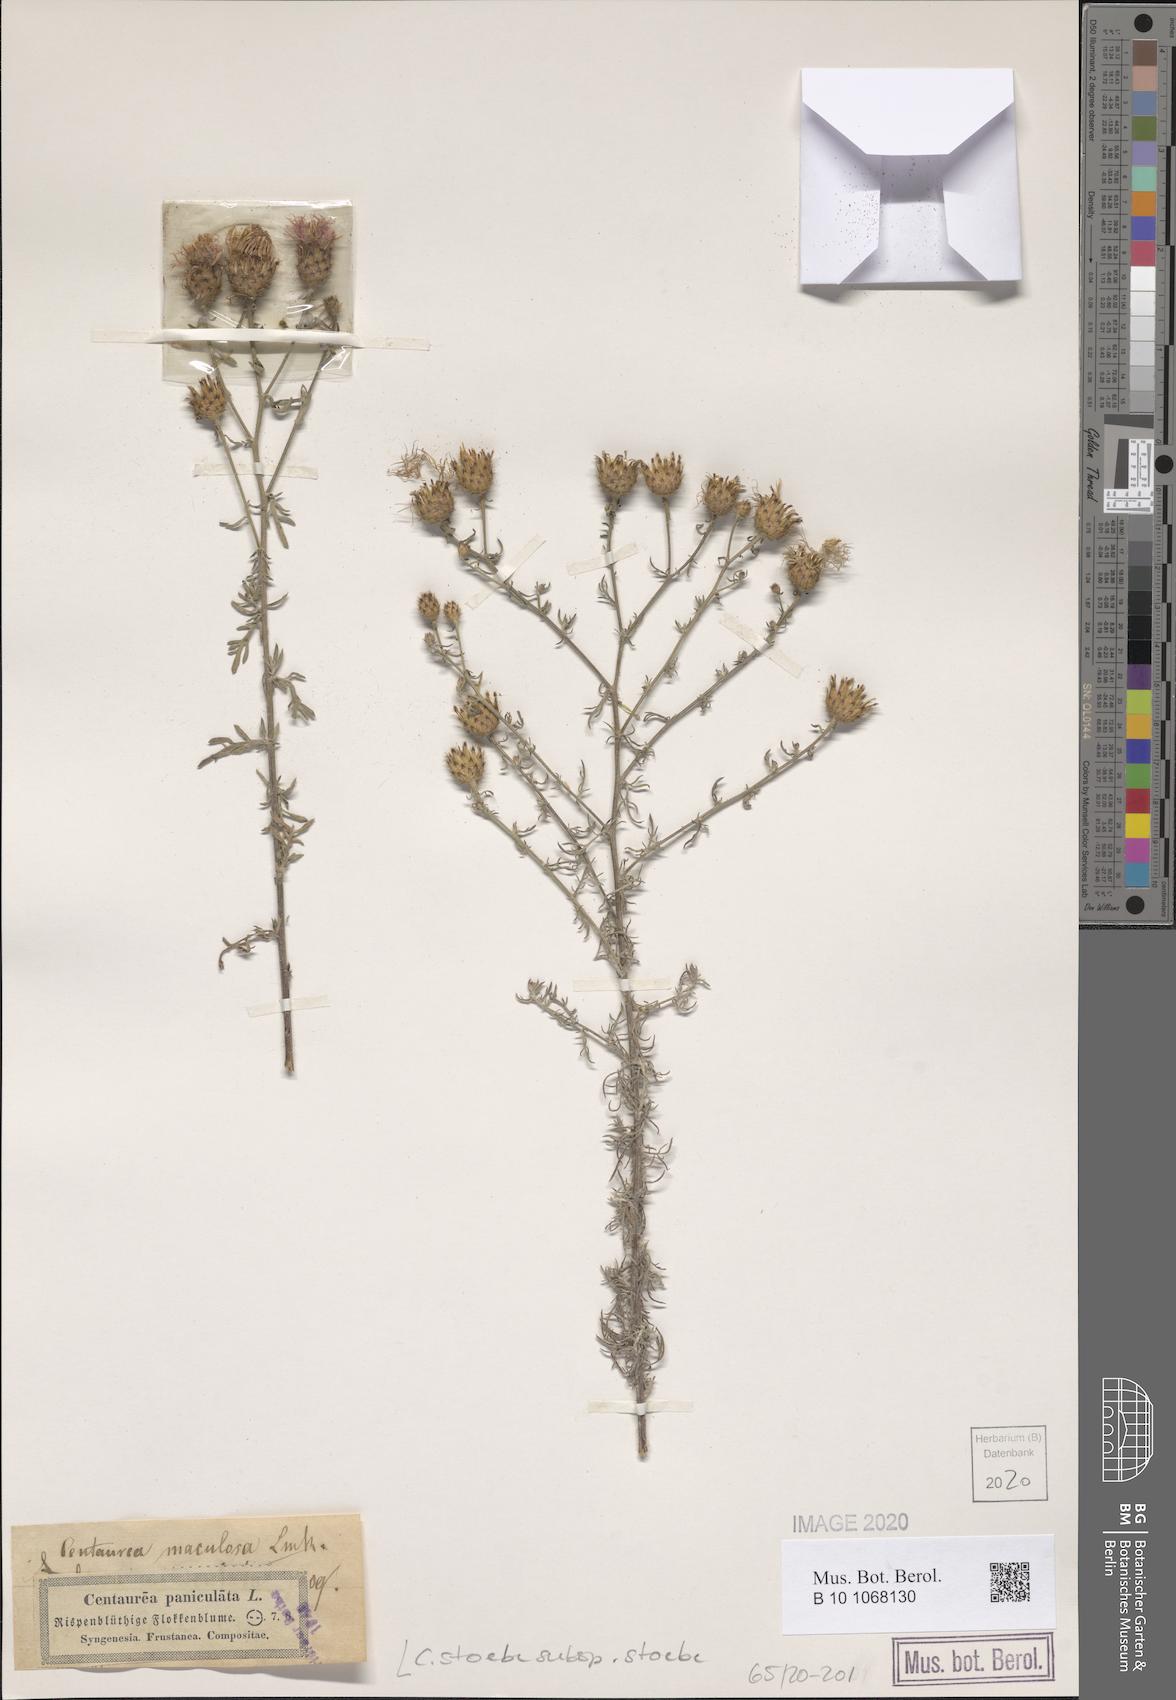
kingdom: Plantae
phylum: Tracheophyta
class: Magnoliopsida
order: Asterales
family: Asteraceae
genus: Centaurea
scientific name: Centaurea stoebe
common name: Spotted knapweed
